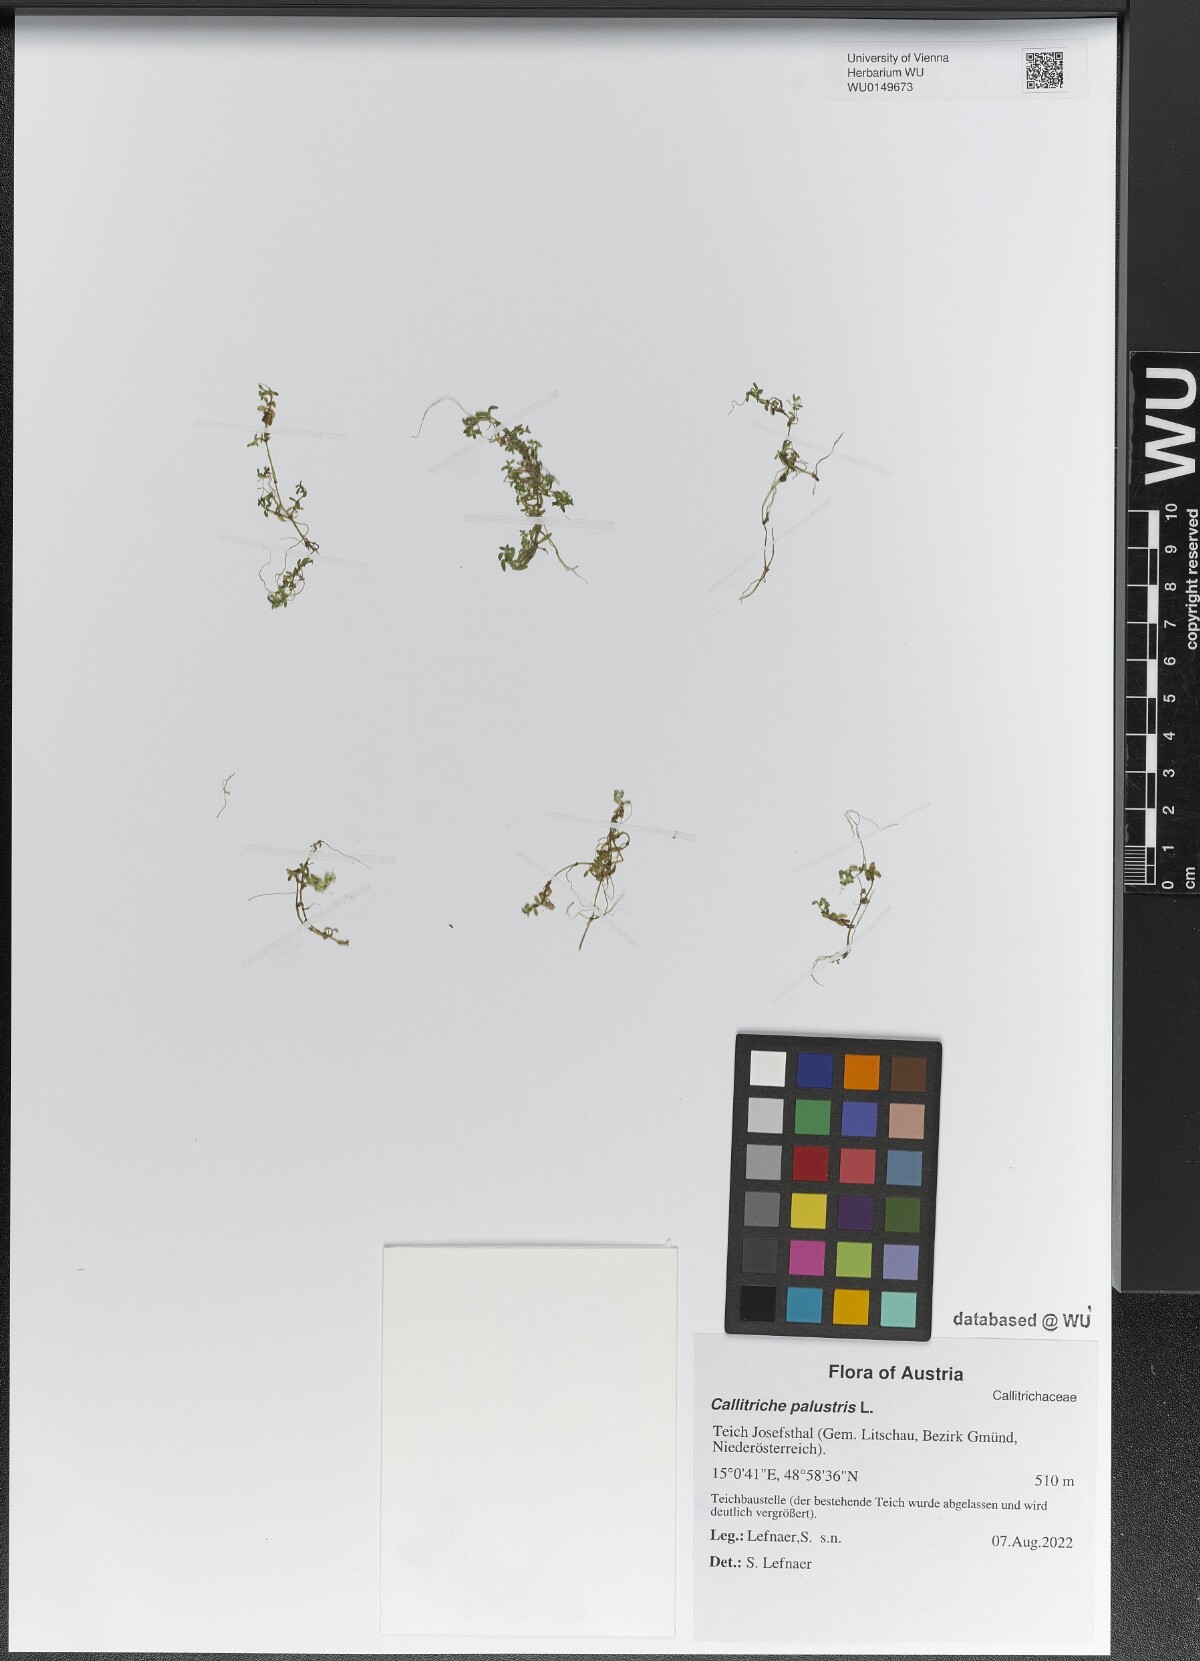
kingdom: Plantae
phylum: Tracheophyta
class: Magnoliopsida
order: Lamiales
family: Plantaginaceae
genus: Callitriche
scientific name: Callitriche palustris
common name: Spring water-starwort
